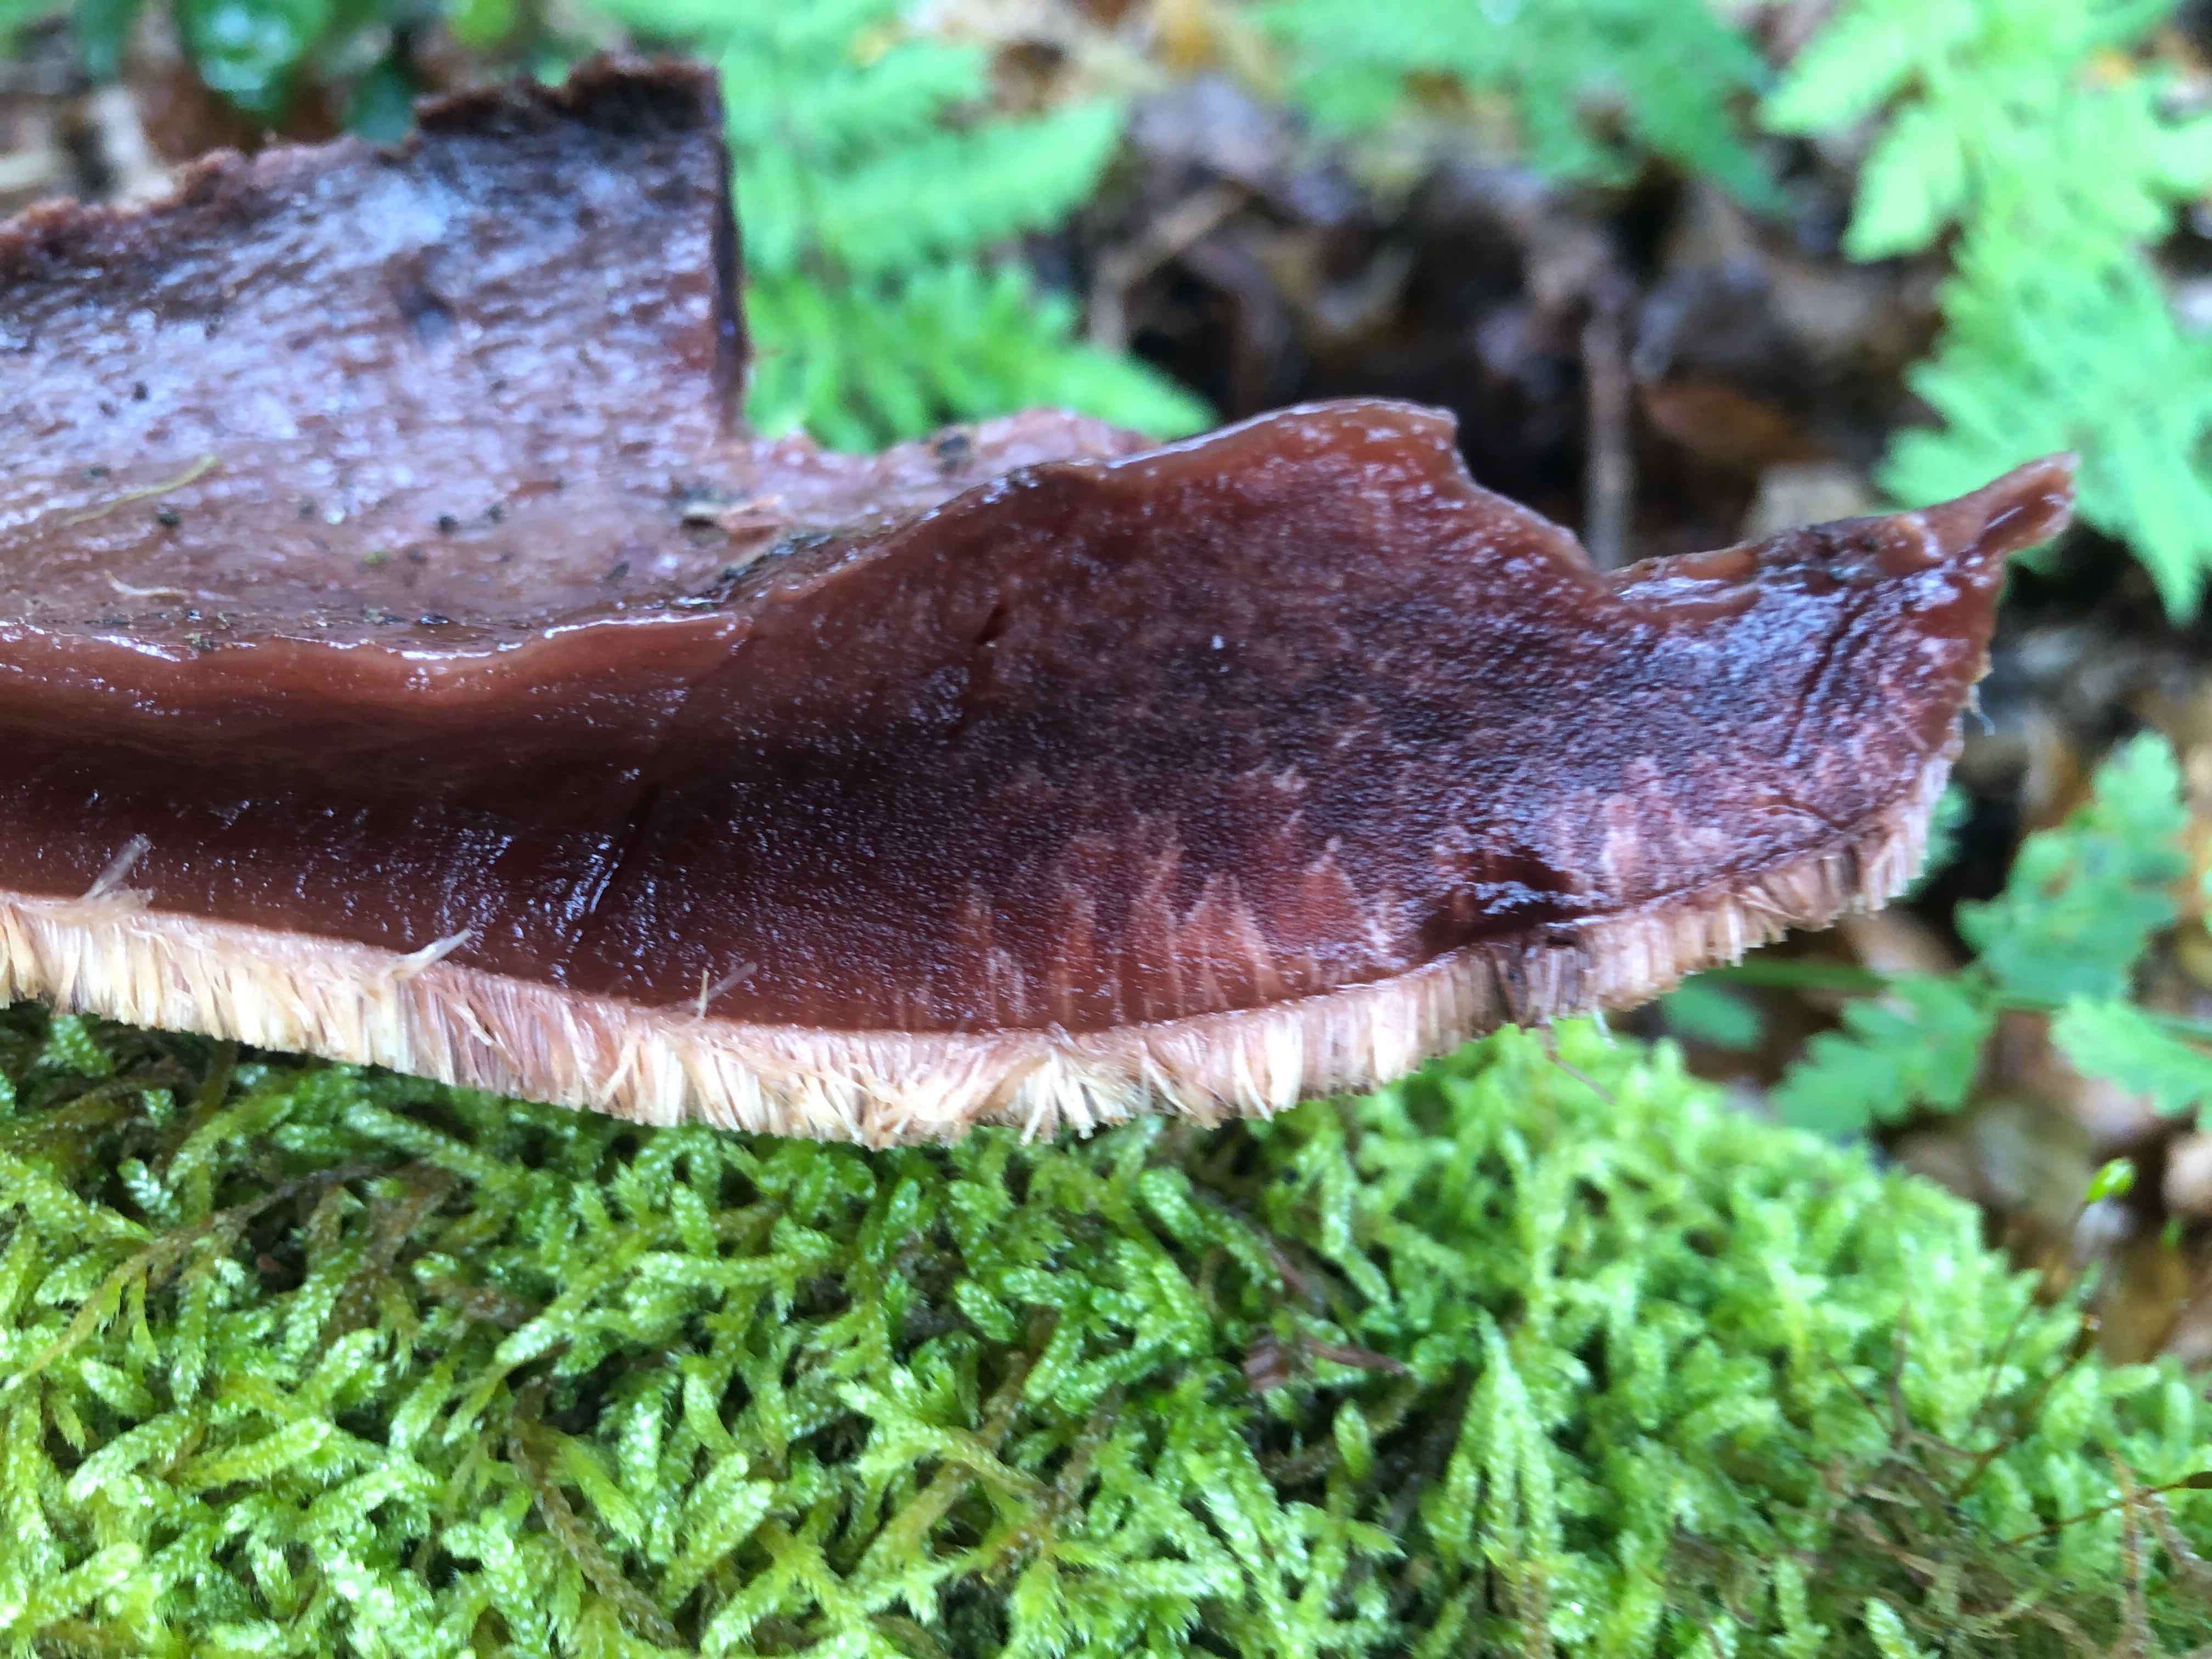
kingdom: Fungi
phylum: Basidiomycota
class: Agaricomycetes
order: Agaricales
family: Fistulinaceae
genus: Fistulina
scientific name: Fistulina hepatica
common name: oksetunge
